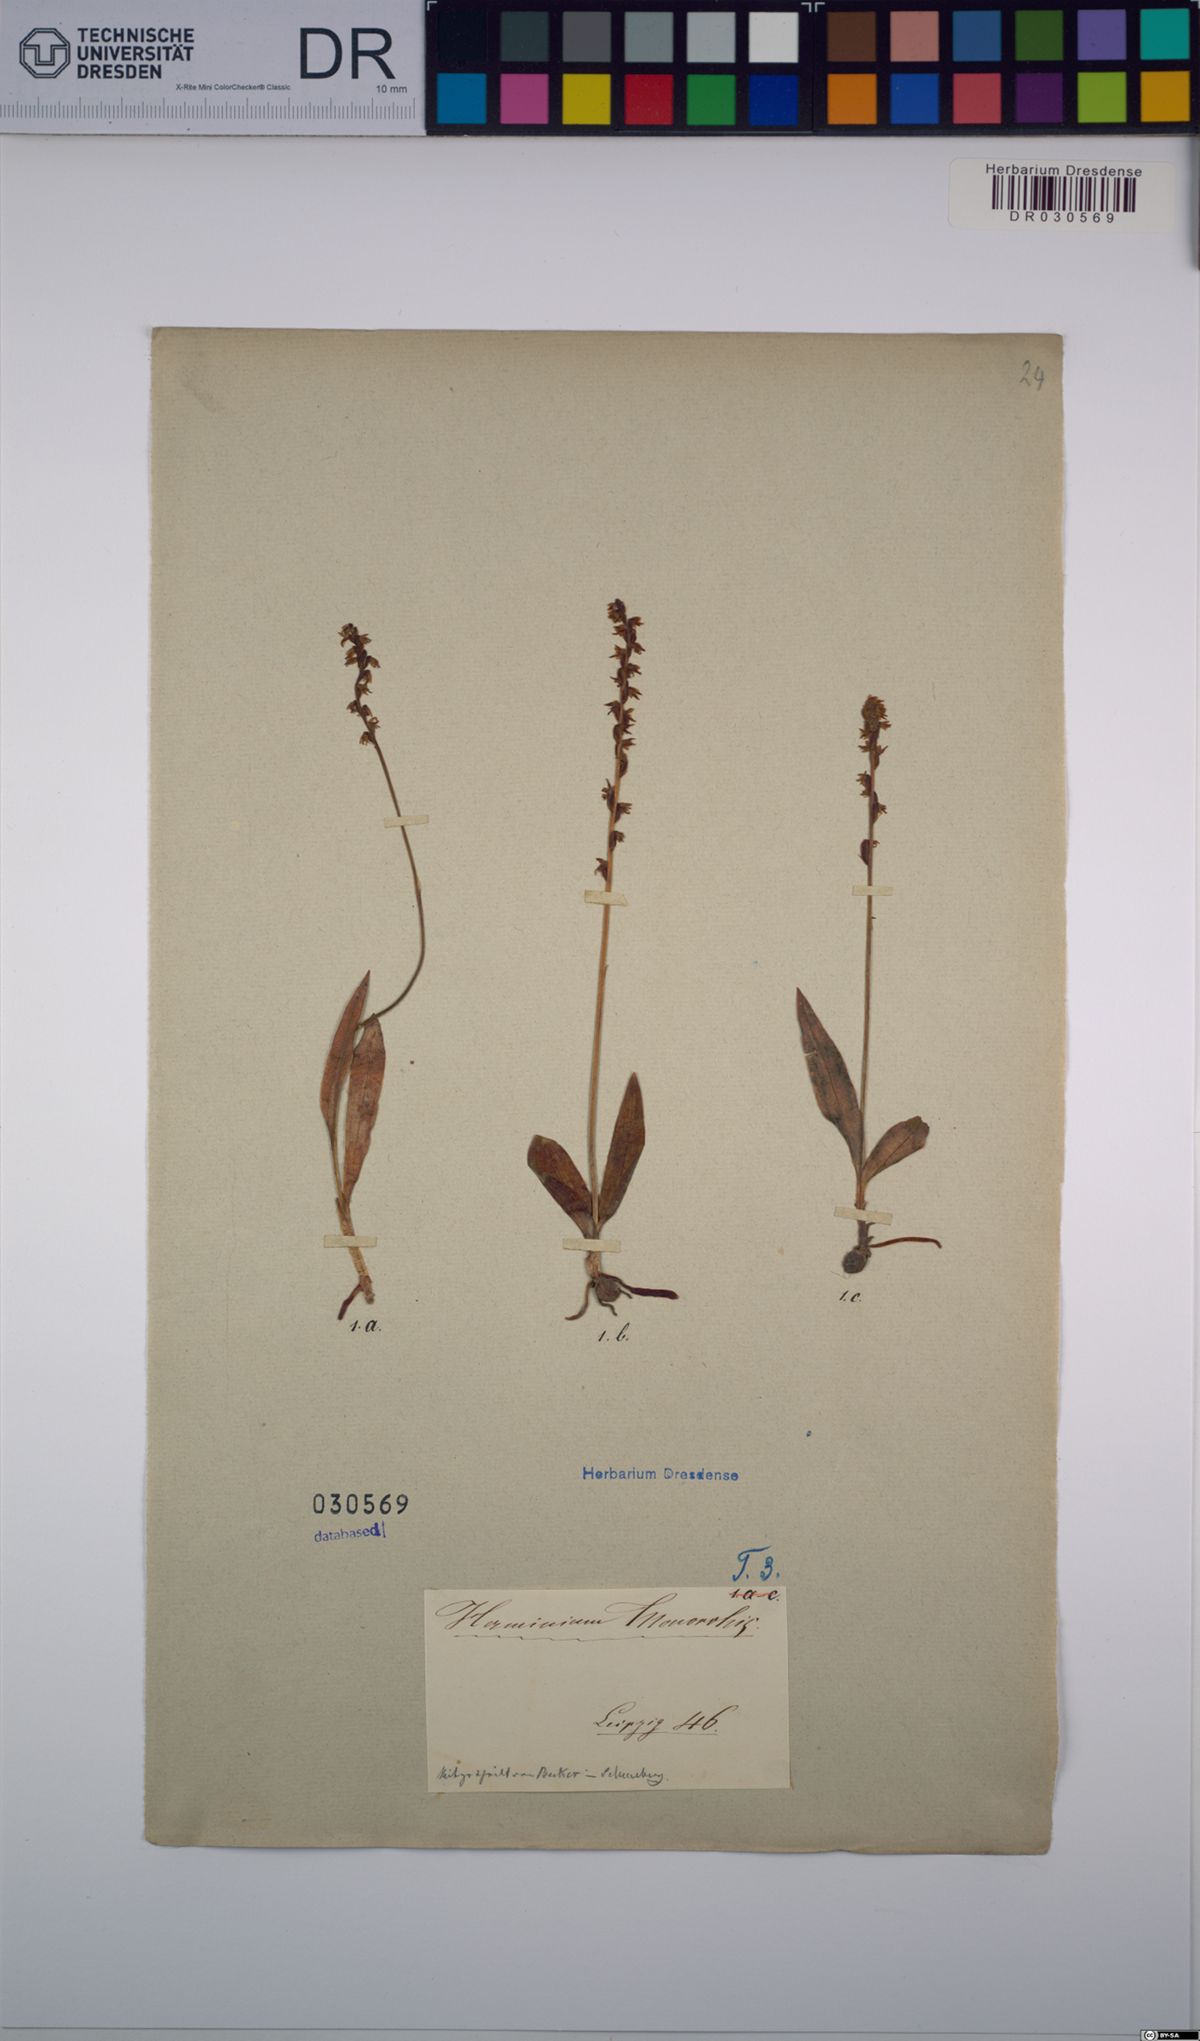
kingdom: Plantae
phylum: Tracheophyta
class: Liliopsida
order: Asparagales
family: Orchidaceae
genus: Herminium
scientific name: Herminium monorchis
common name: Musk orchid
